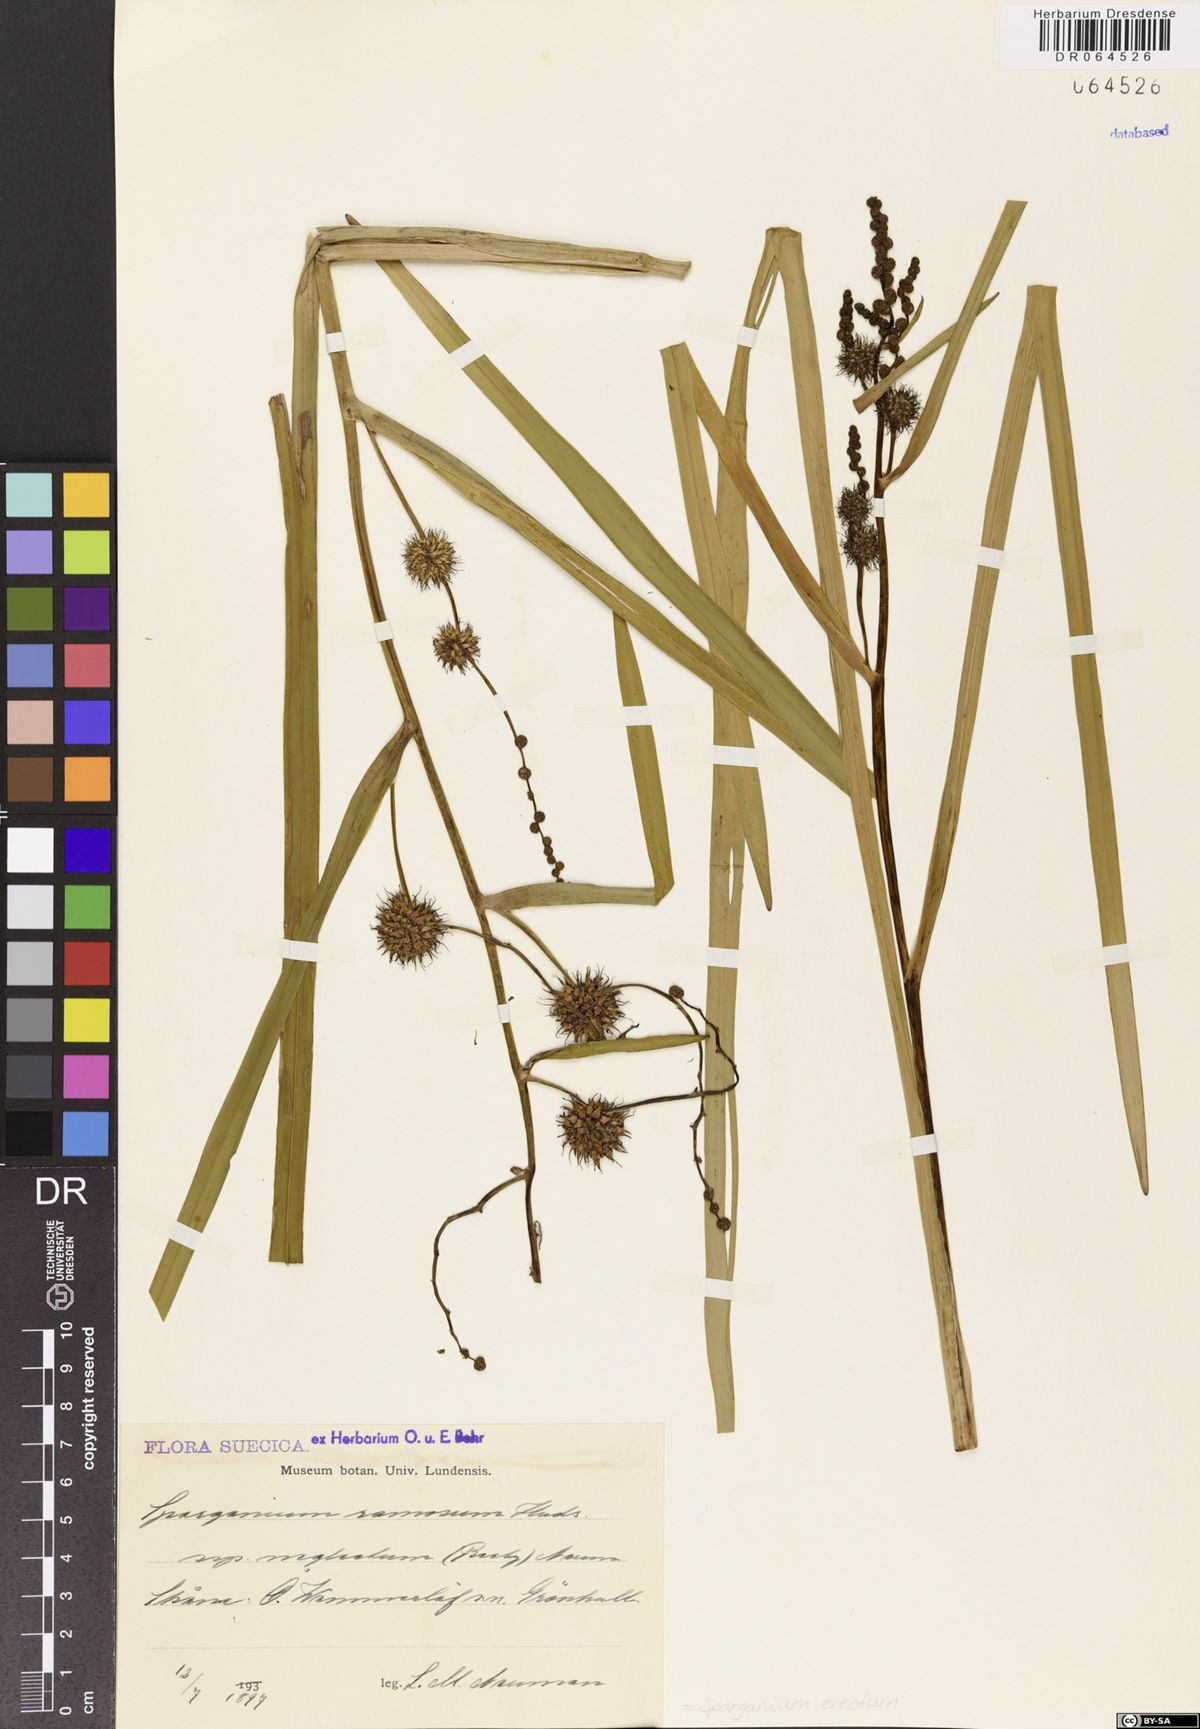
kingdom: Plantae
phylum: Tracheophyta
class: Liliopsida
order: Poales
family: Typhaceae
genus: Sparganium
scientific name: Sparganium erectum
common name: Branched bur-reed
